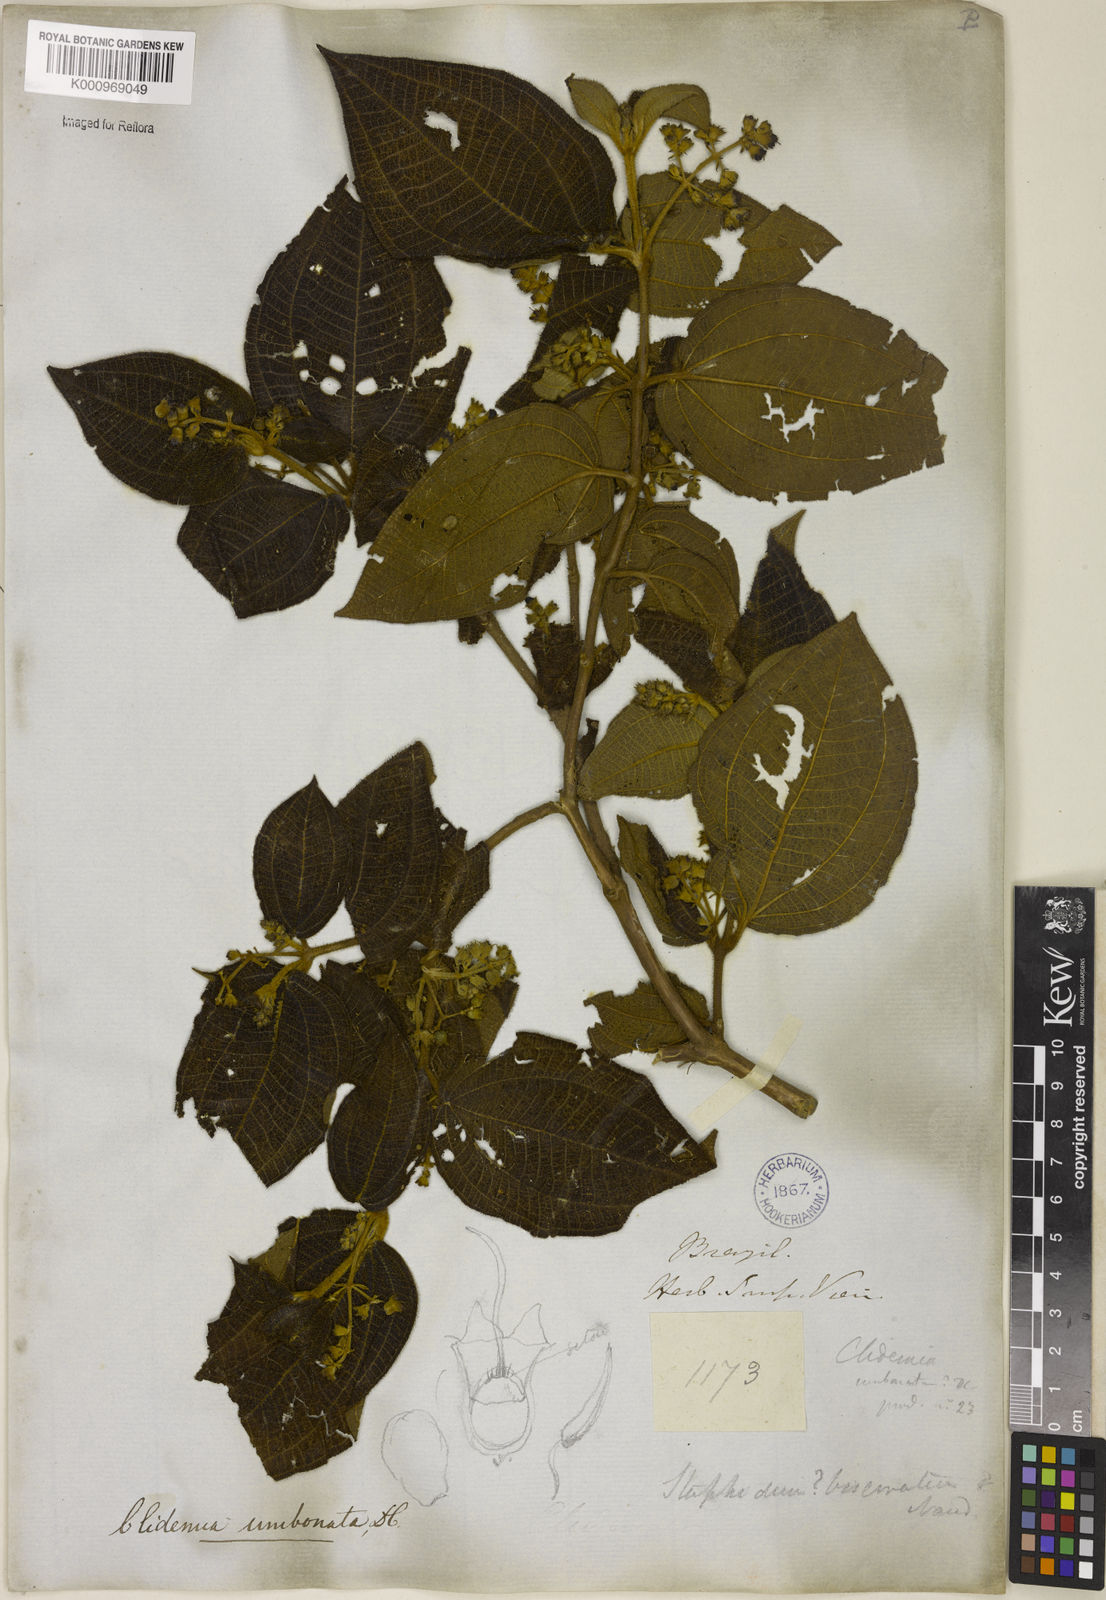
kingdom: Plantae
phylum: Tracheophyta
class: Magnoliopsida
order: Myrtales
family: Melastomataceae
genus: Miconia
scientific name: Miconia strigillosa
